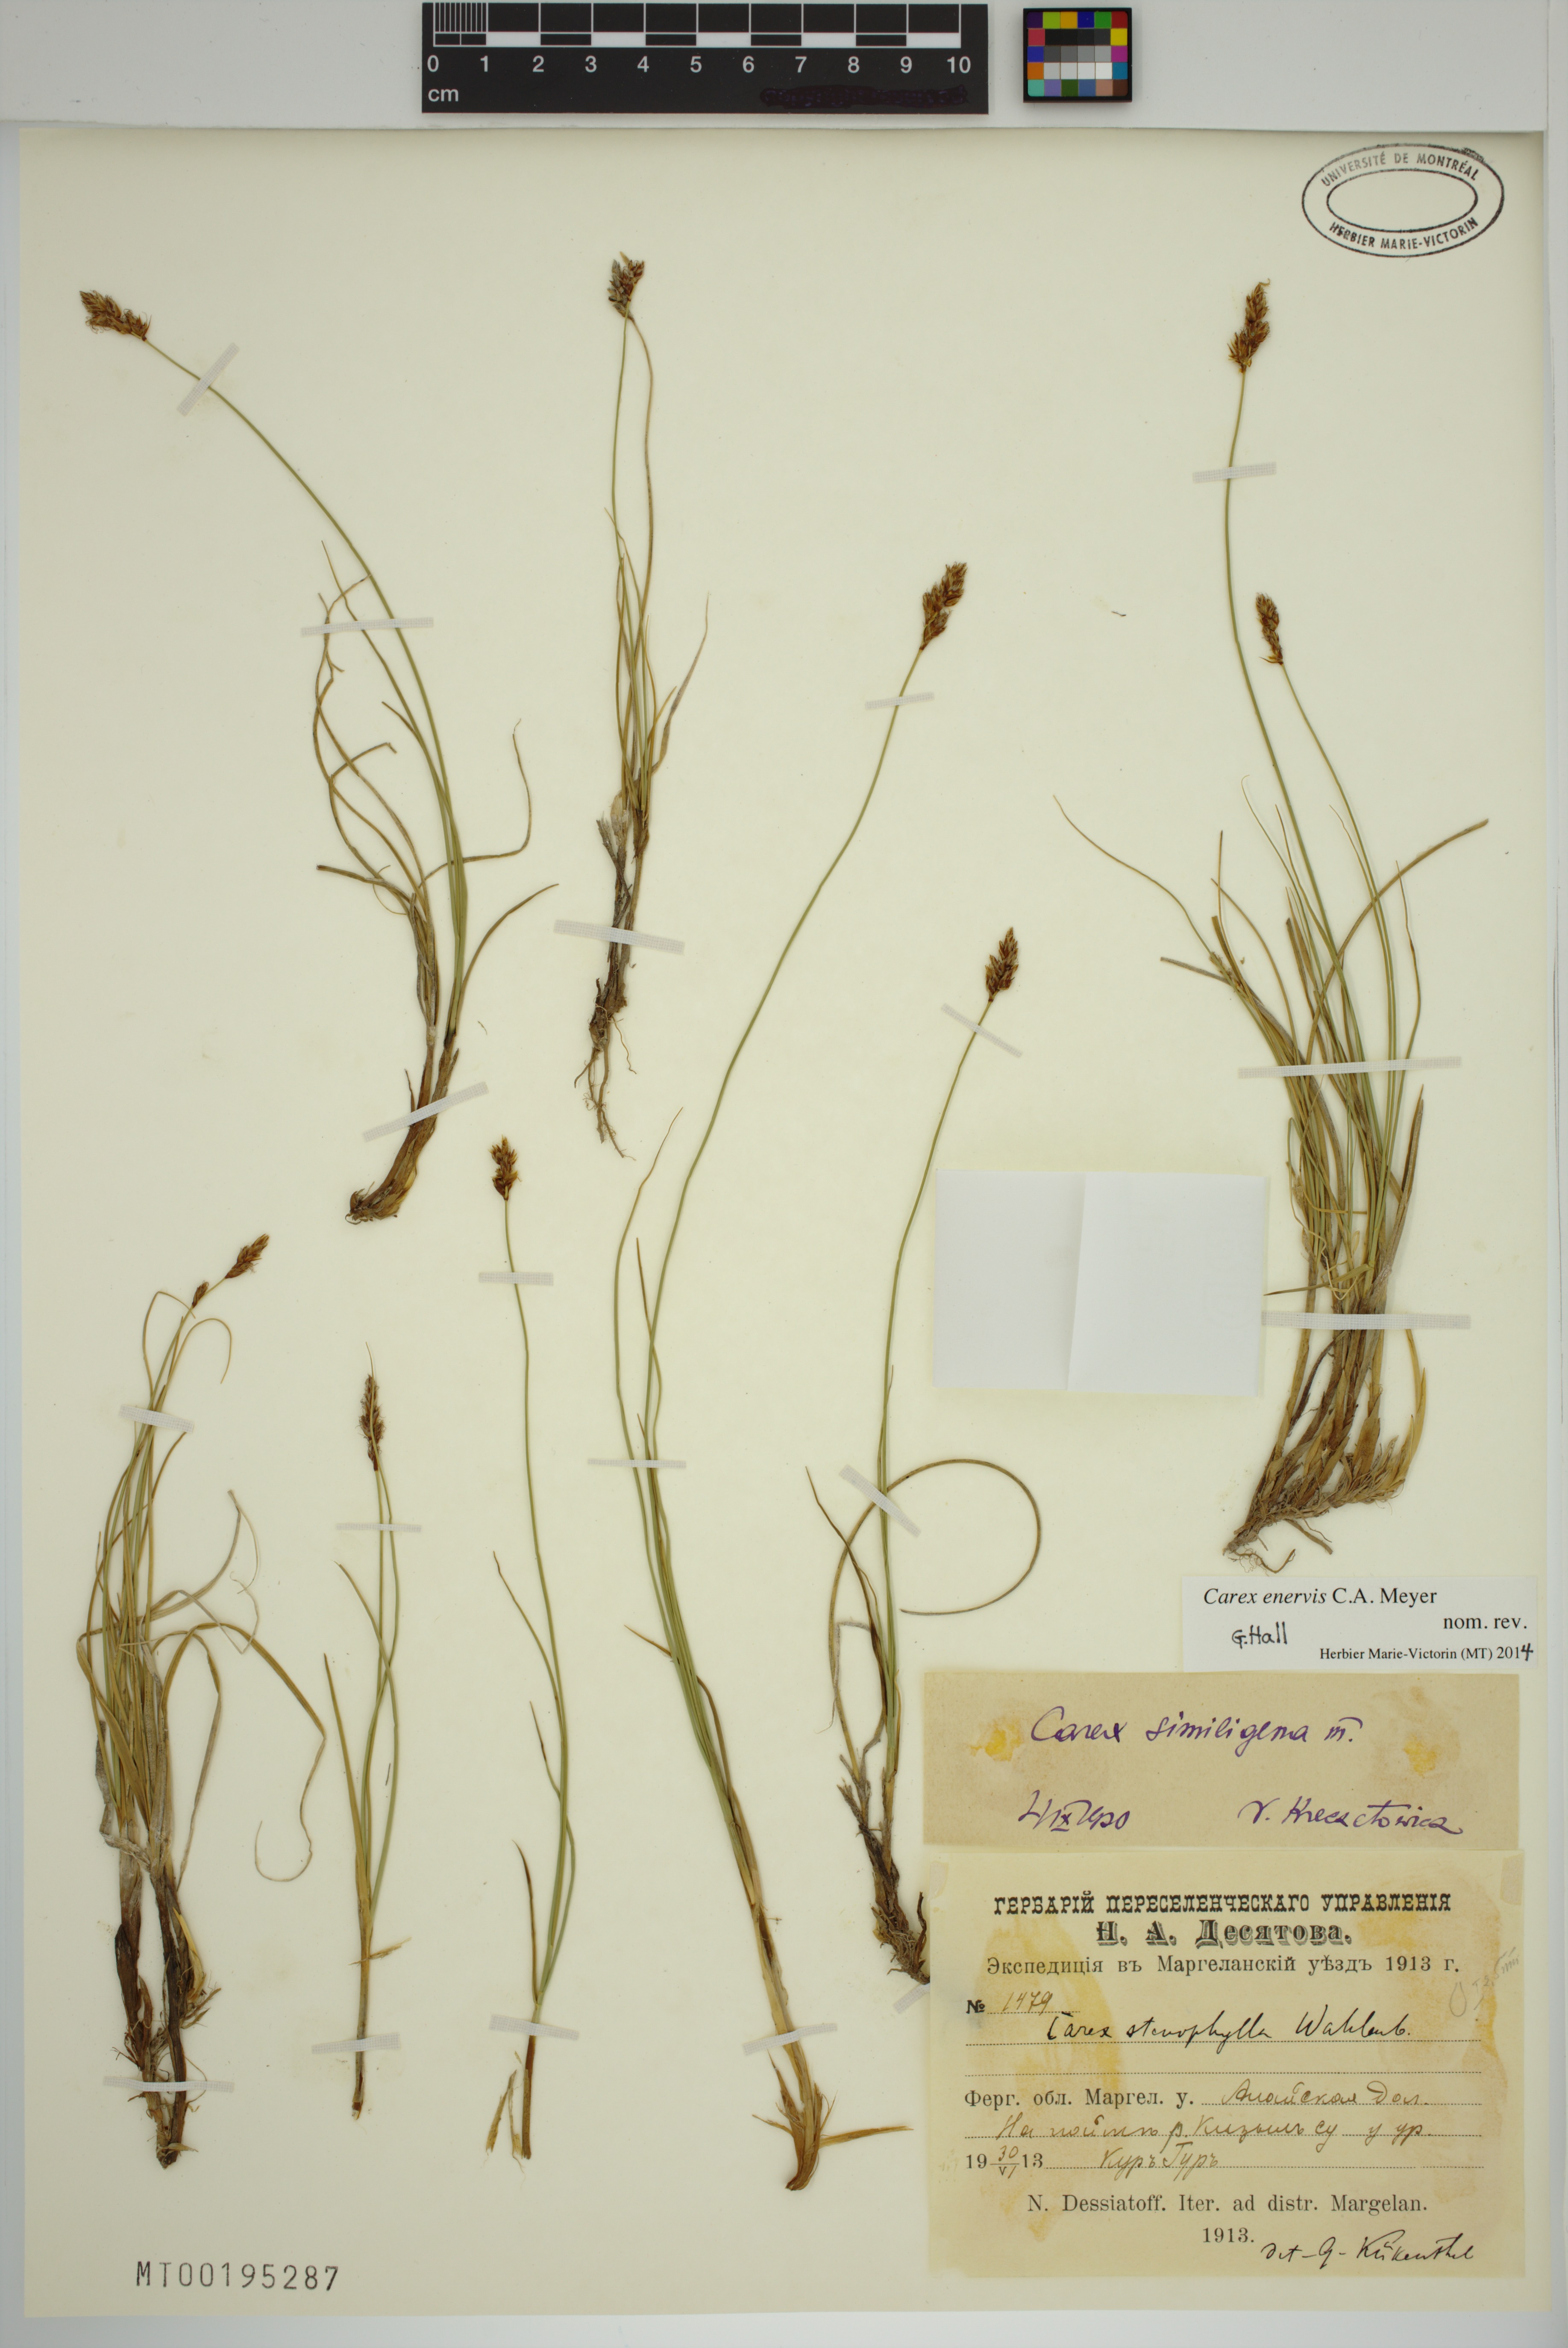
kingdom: Plantae
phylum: Tracheophyta
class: Liliopsida
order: Poales
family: Cyperaceae
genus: Carex
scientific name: Carex enervis
